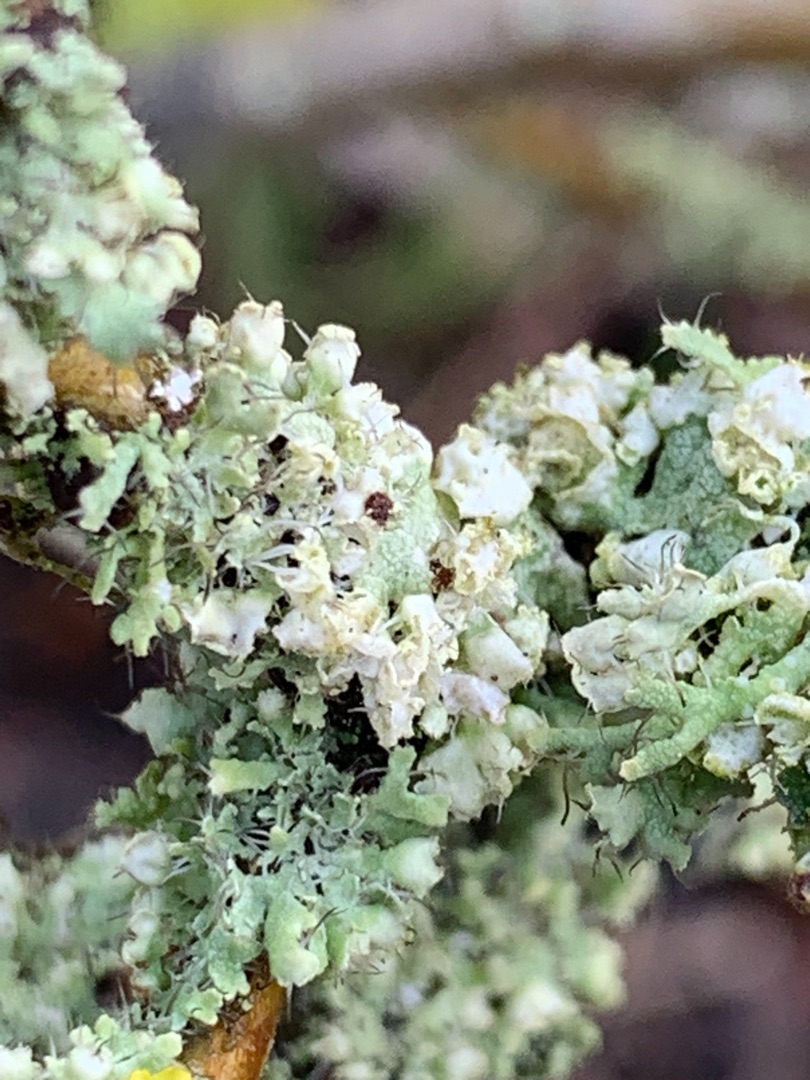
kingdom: Fungi
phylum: Ascomycota
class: Lecanoromycetes
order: Caliciales
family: Physciaceae
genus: Physcia
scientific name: Physcia adscendens
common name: Hætte-rosetlav
